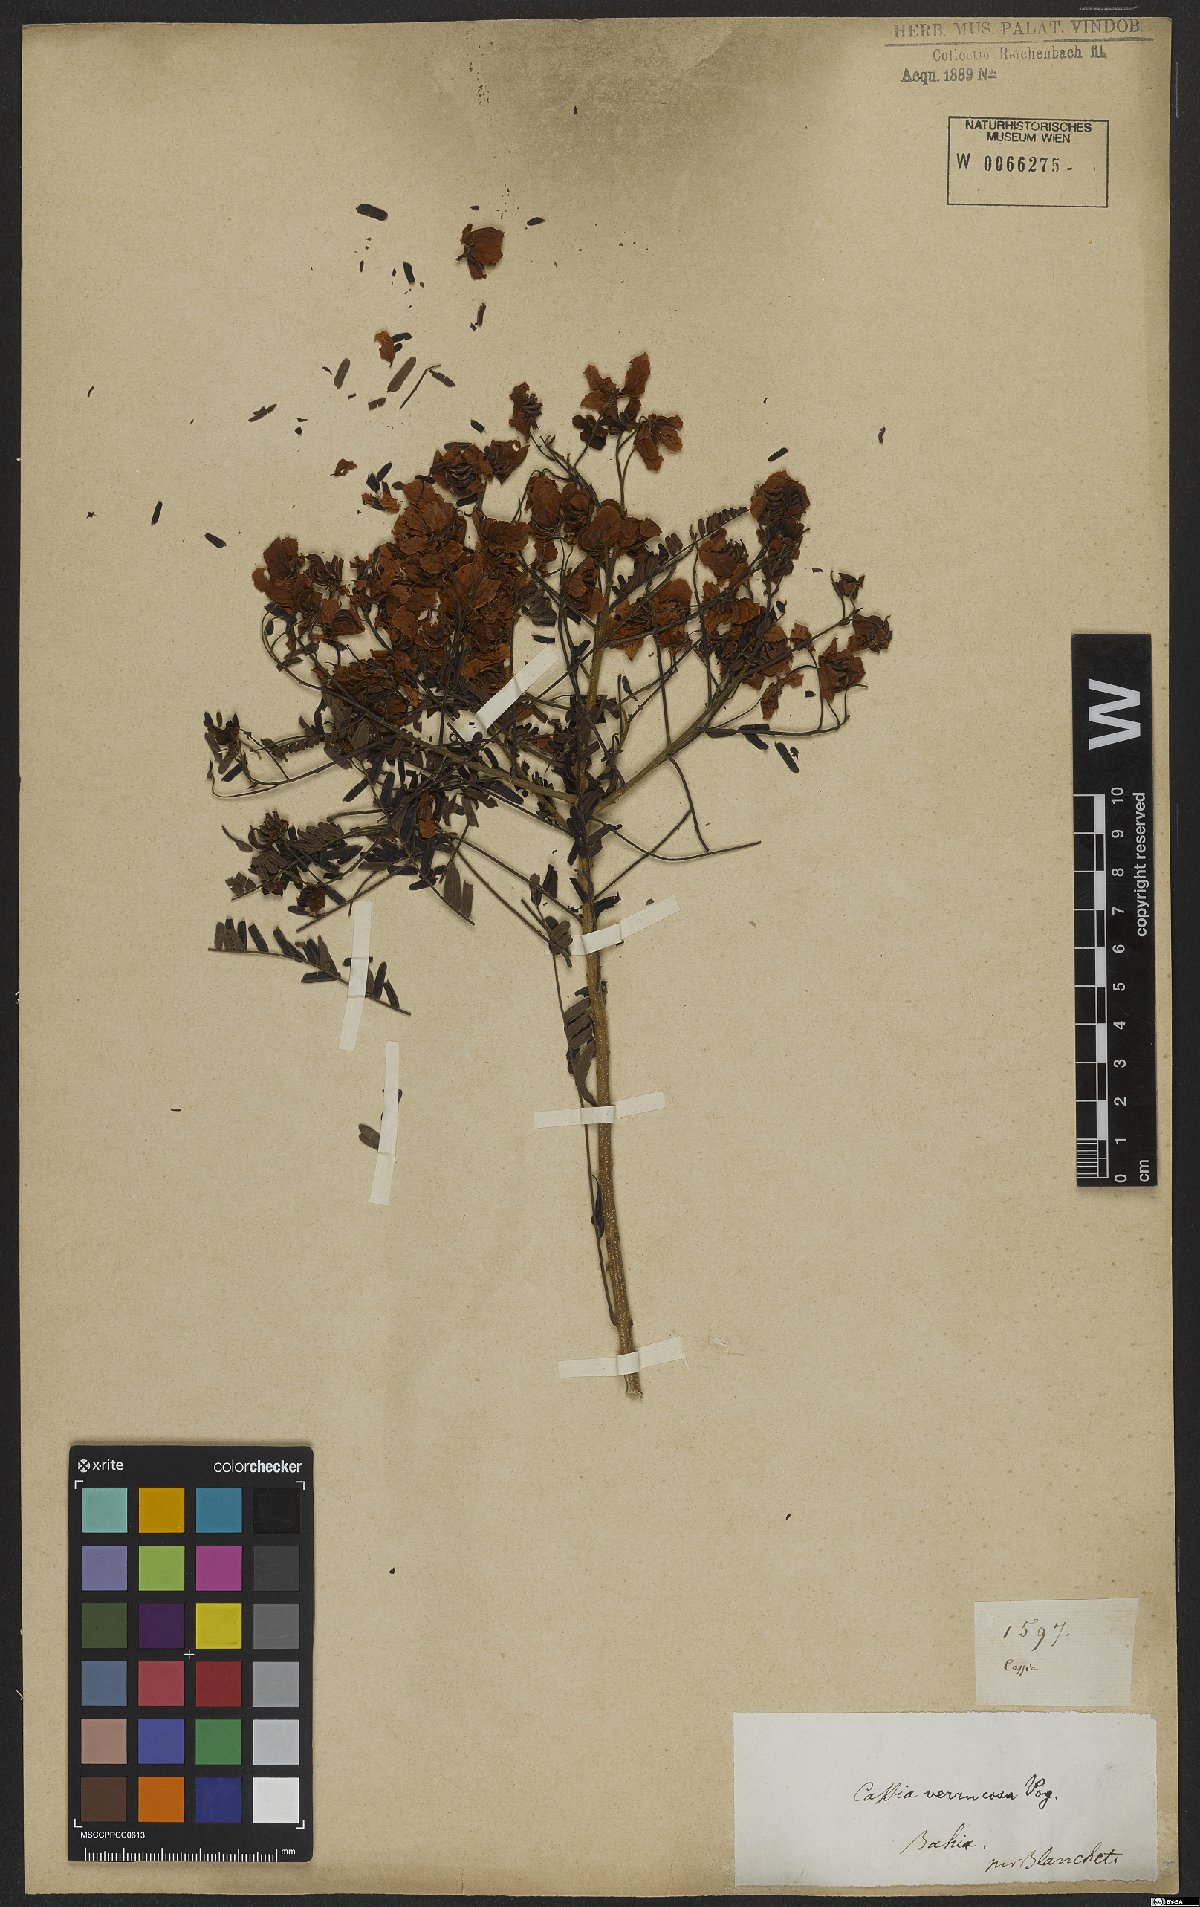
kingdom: Plantae
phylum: Tracheophyta
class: Magnoliopsida
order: Fabales
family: Fabaceae
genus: Senna
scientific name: Senna multijuga
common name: False sicklepod
